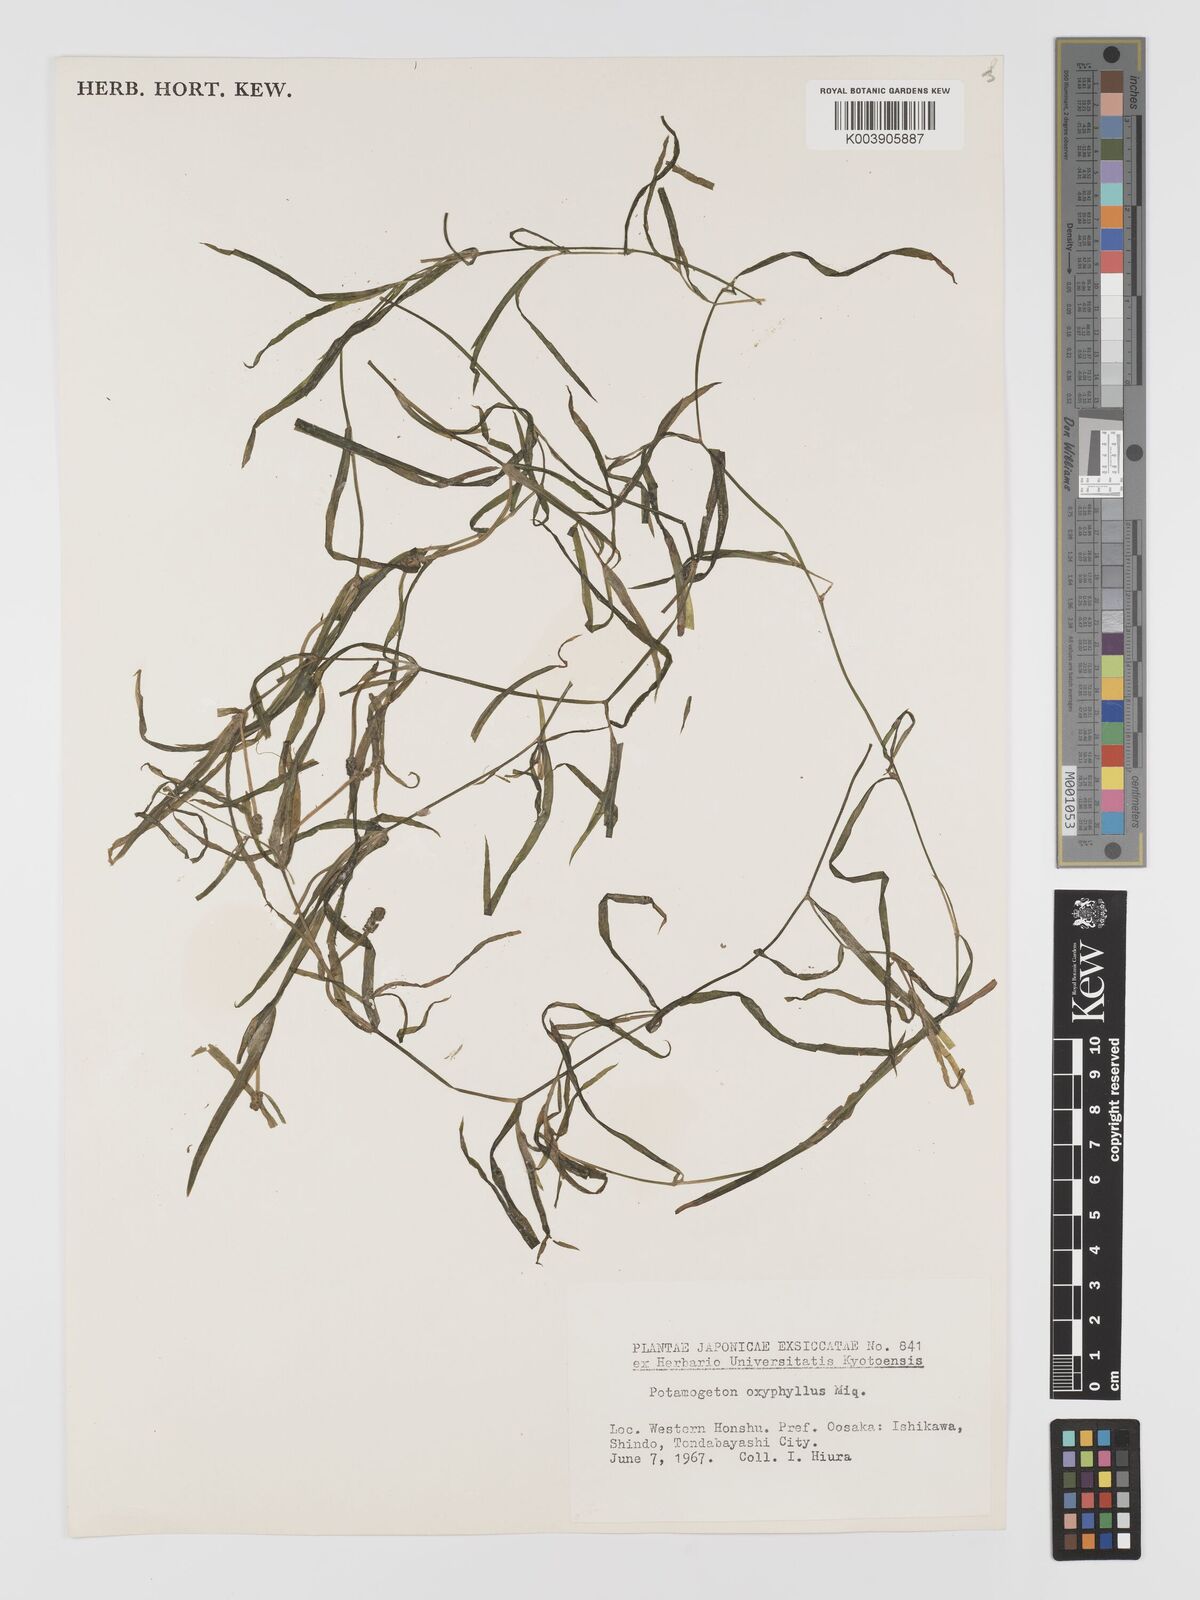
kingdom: Plantae
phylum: Tracheophyta
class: Liliopsida
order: Alismatales
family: Potamogetonaceae
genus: Potamogeton
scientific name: Potamogeton oxyphyllus
